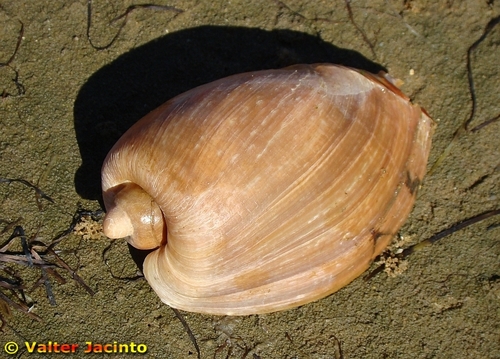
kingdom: Animalia
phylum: Mollusca
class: Gastropoda
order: Neogastropoda
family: Volutidae
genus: Cymbium
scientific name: Cymbium olla
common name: Algarve volute
